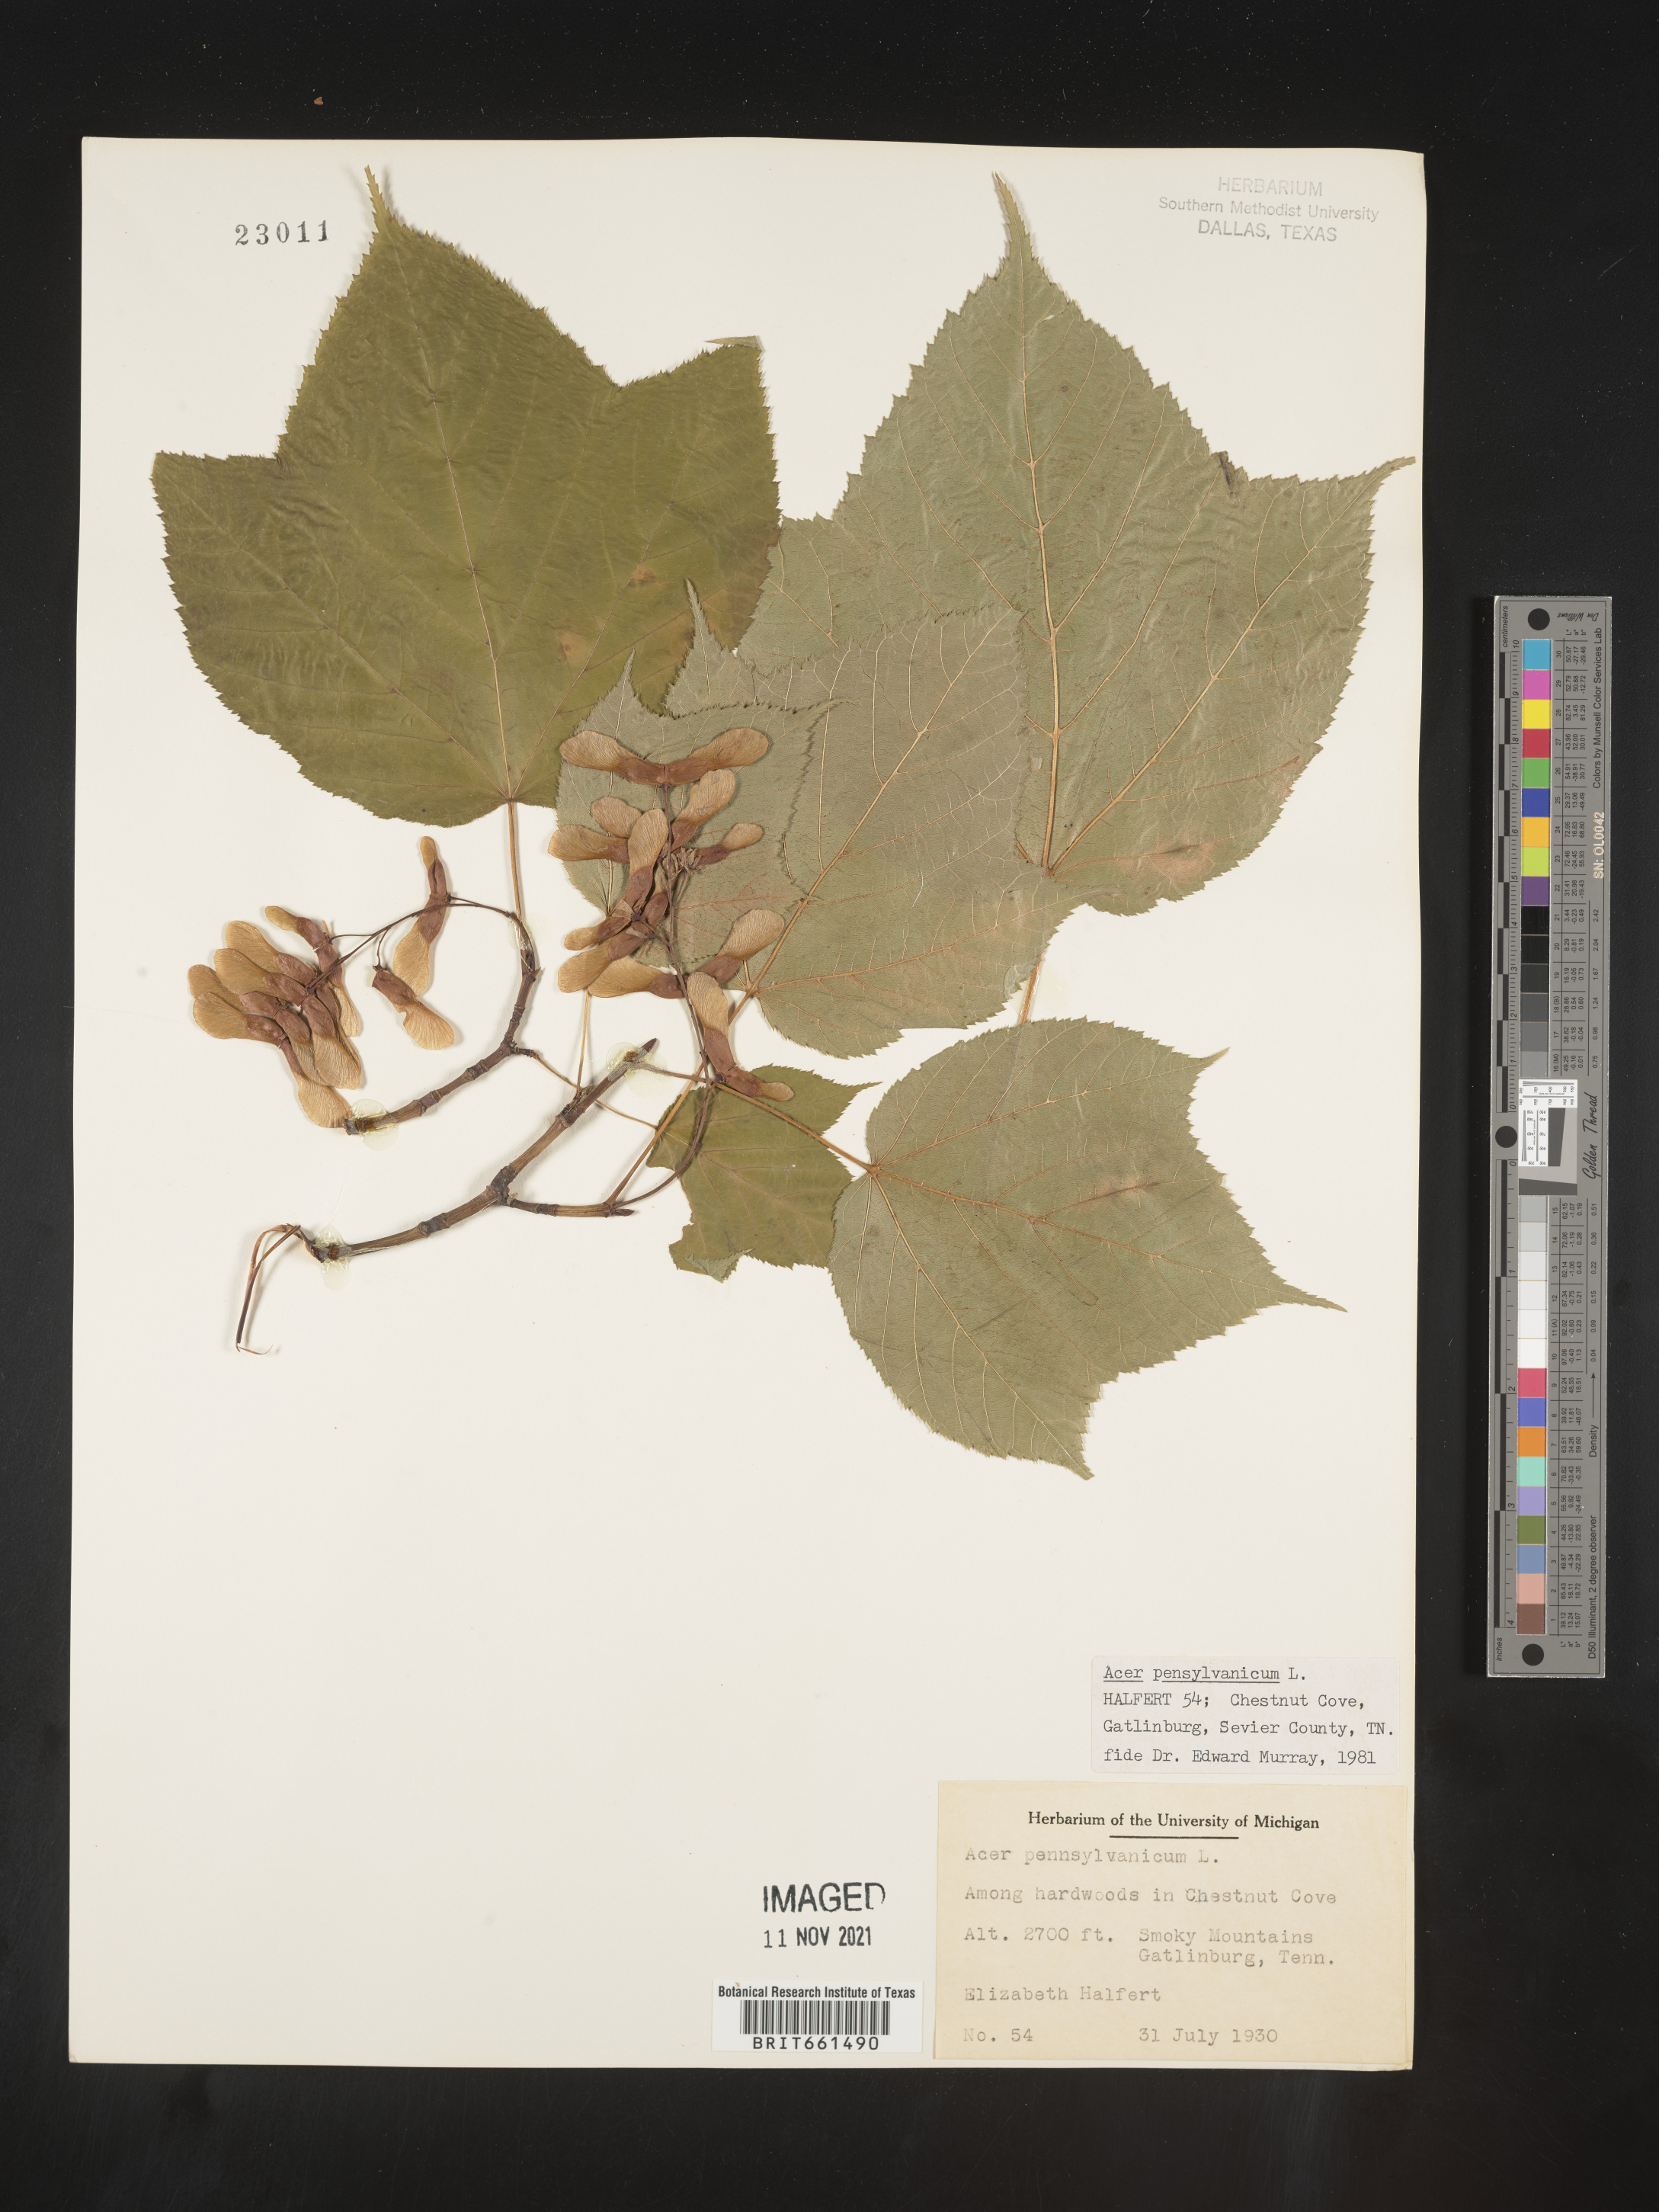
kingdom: Plantae
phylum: Tracheophyta
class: Magnoliopsida
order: Sapindales
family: Sapindaceae
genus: Acer
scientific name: Acer pensylvanicum
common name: Moosewood
